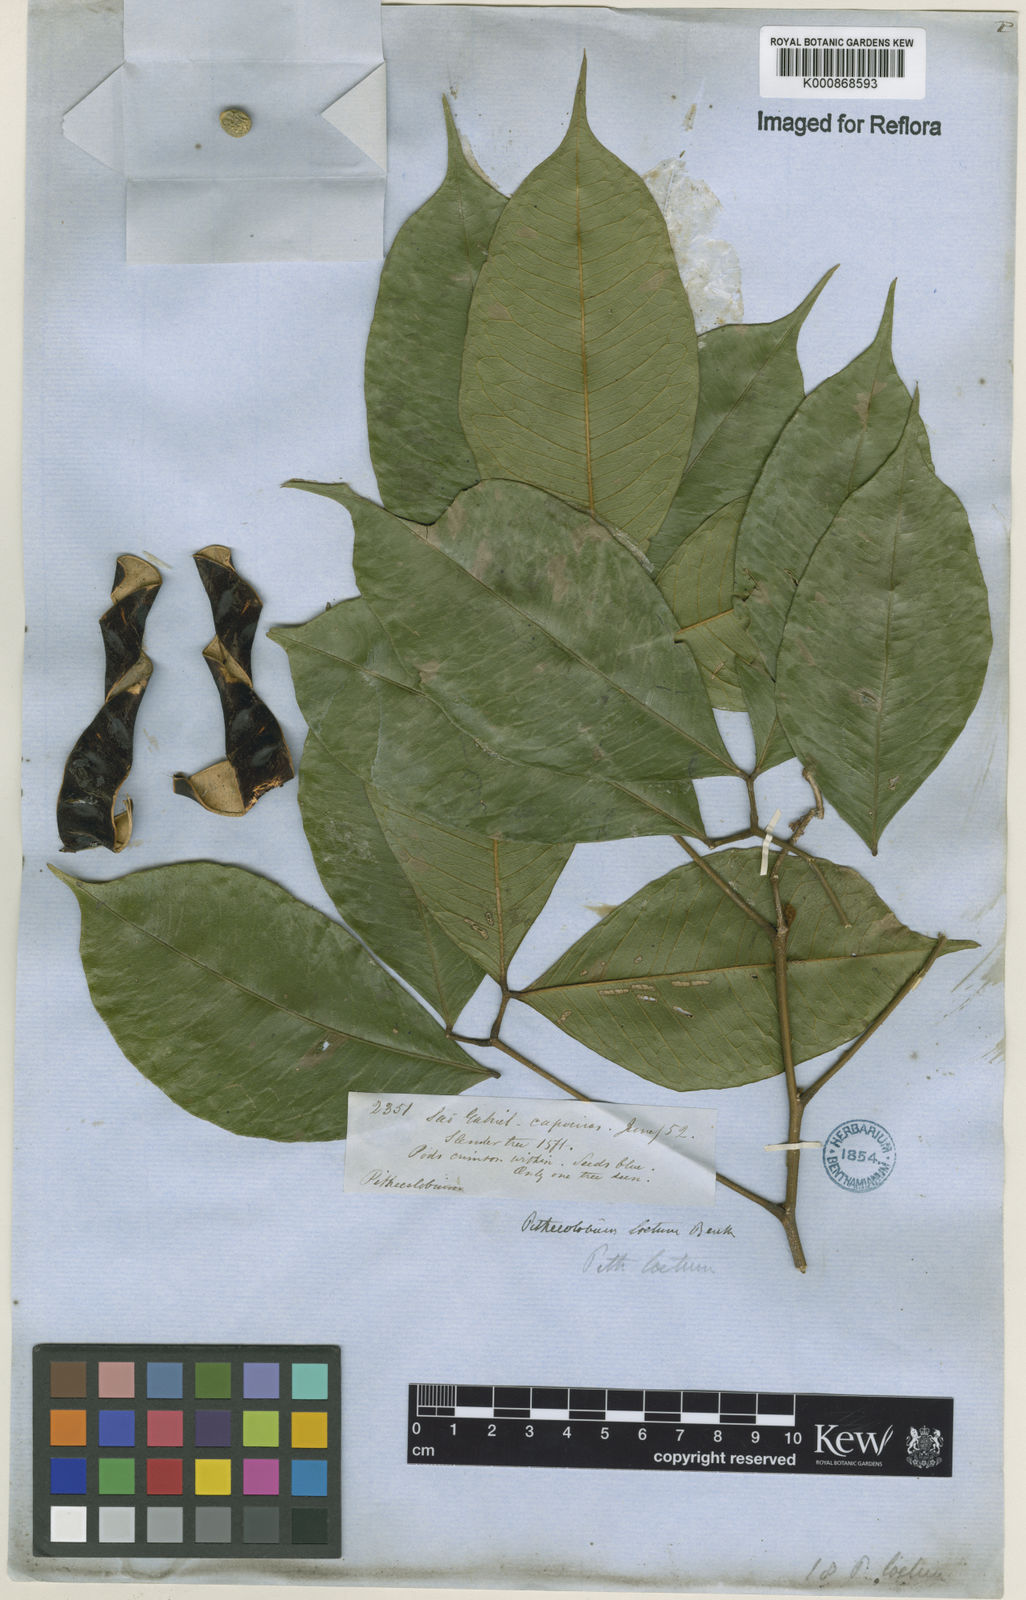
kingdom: Plantae
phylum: Tracheophyta
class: Magnoliopsida
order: Fabales
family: Fabaceae
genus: Jupunba
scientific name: Jupunba laeta
